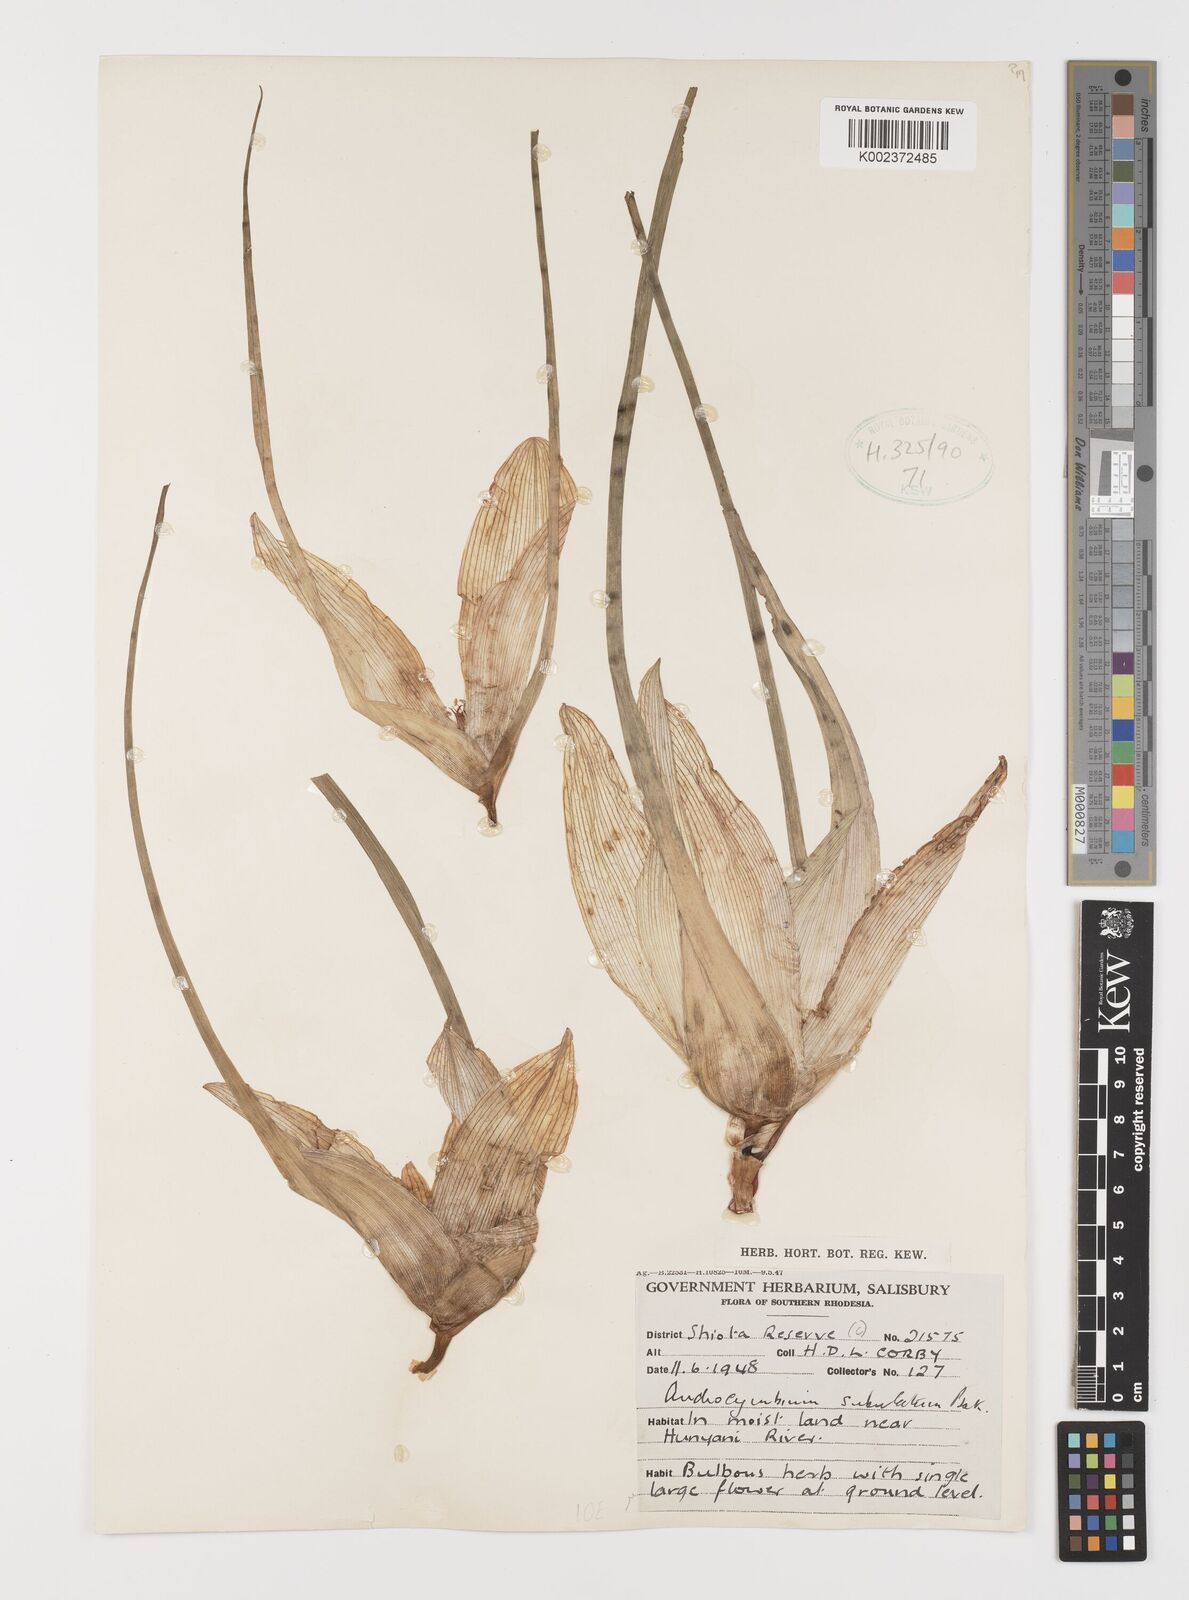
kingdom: Plantae
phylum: Tracheophyta
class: Liliopsida
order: Liliales
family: Colchicaceae
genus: Colchicum
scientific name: Colchicum melanthioides
